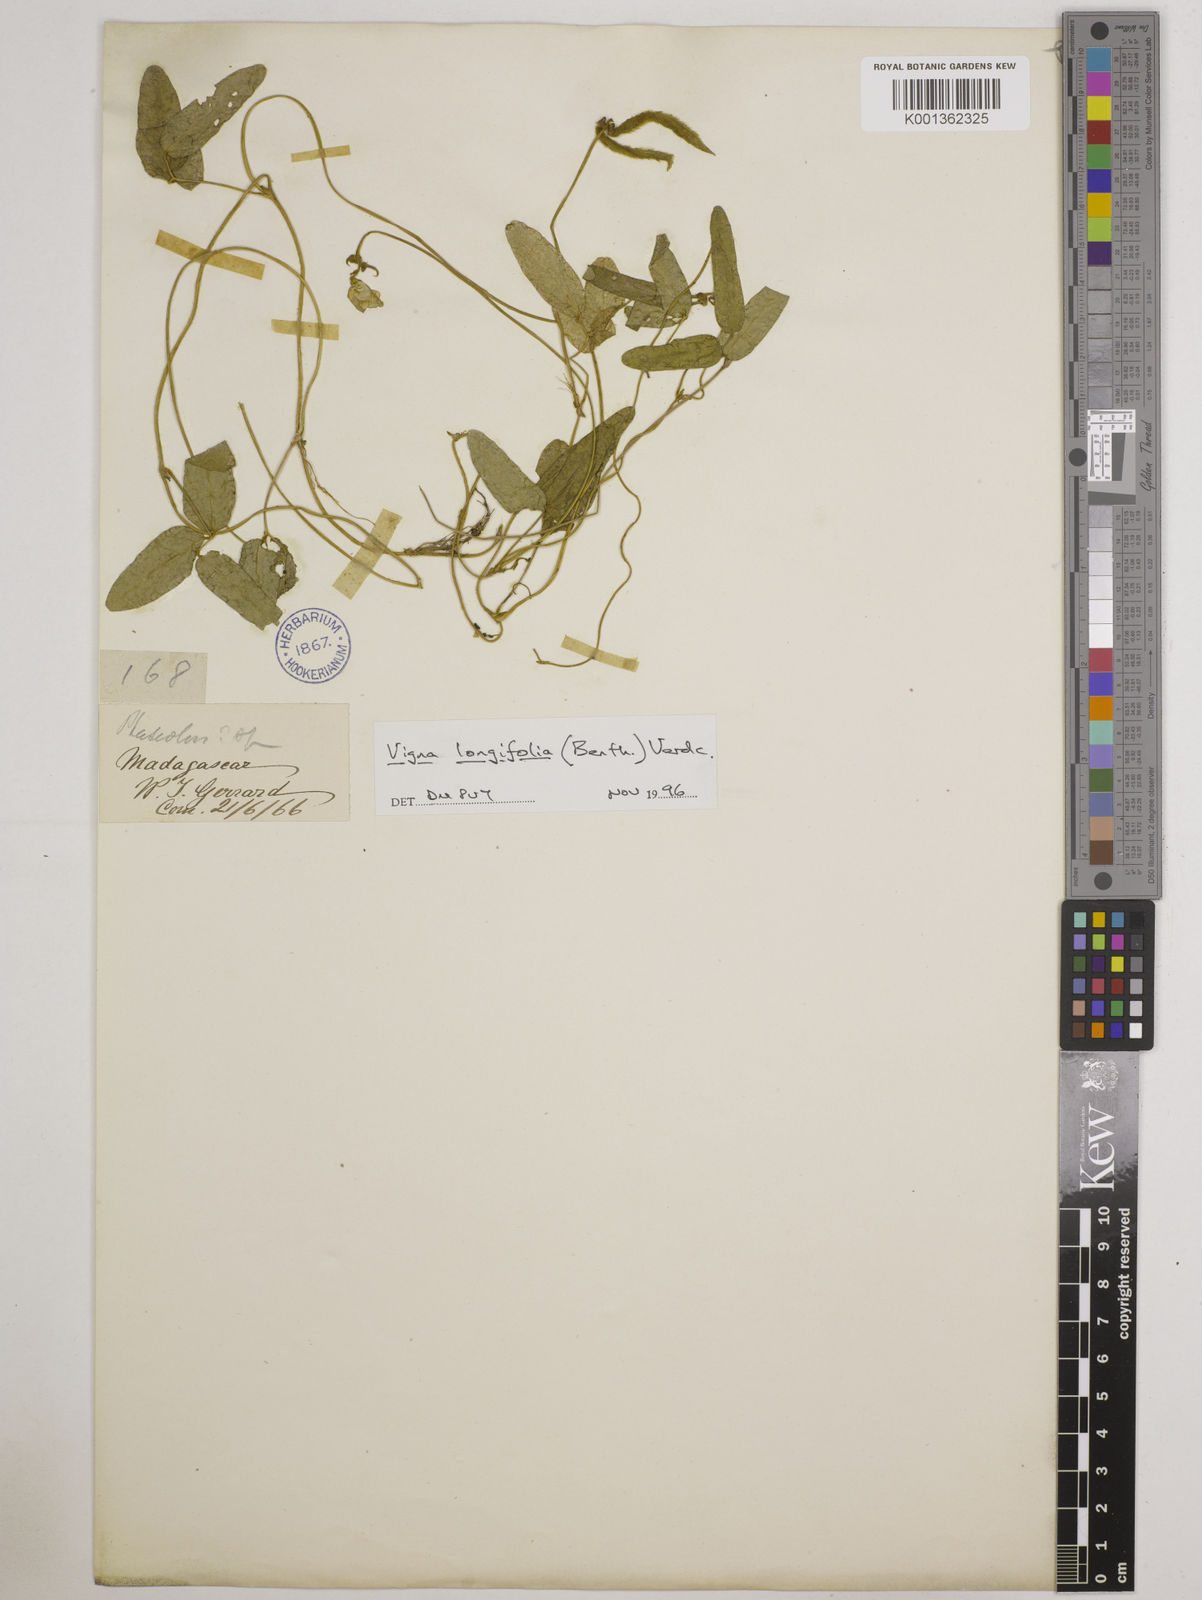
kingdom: Plantae
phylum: Tracheophyta
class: Magnoliopsida
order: Fabales
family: Fabaceae
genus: Vigna
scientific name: Vigna longifolia
